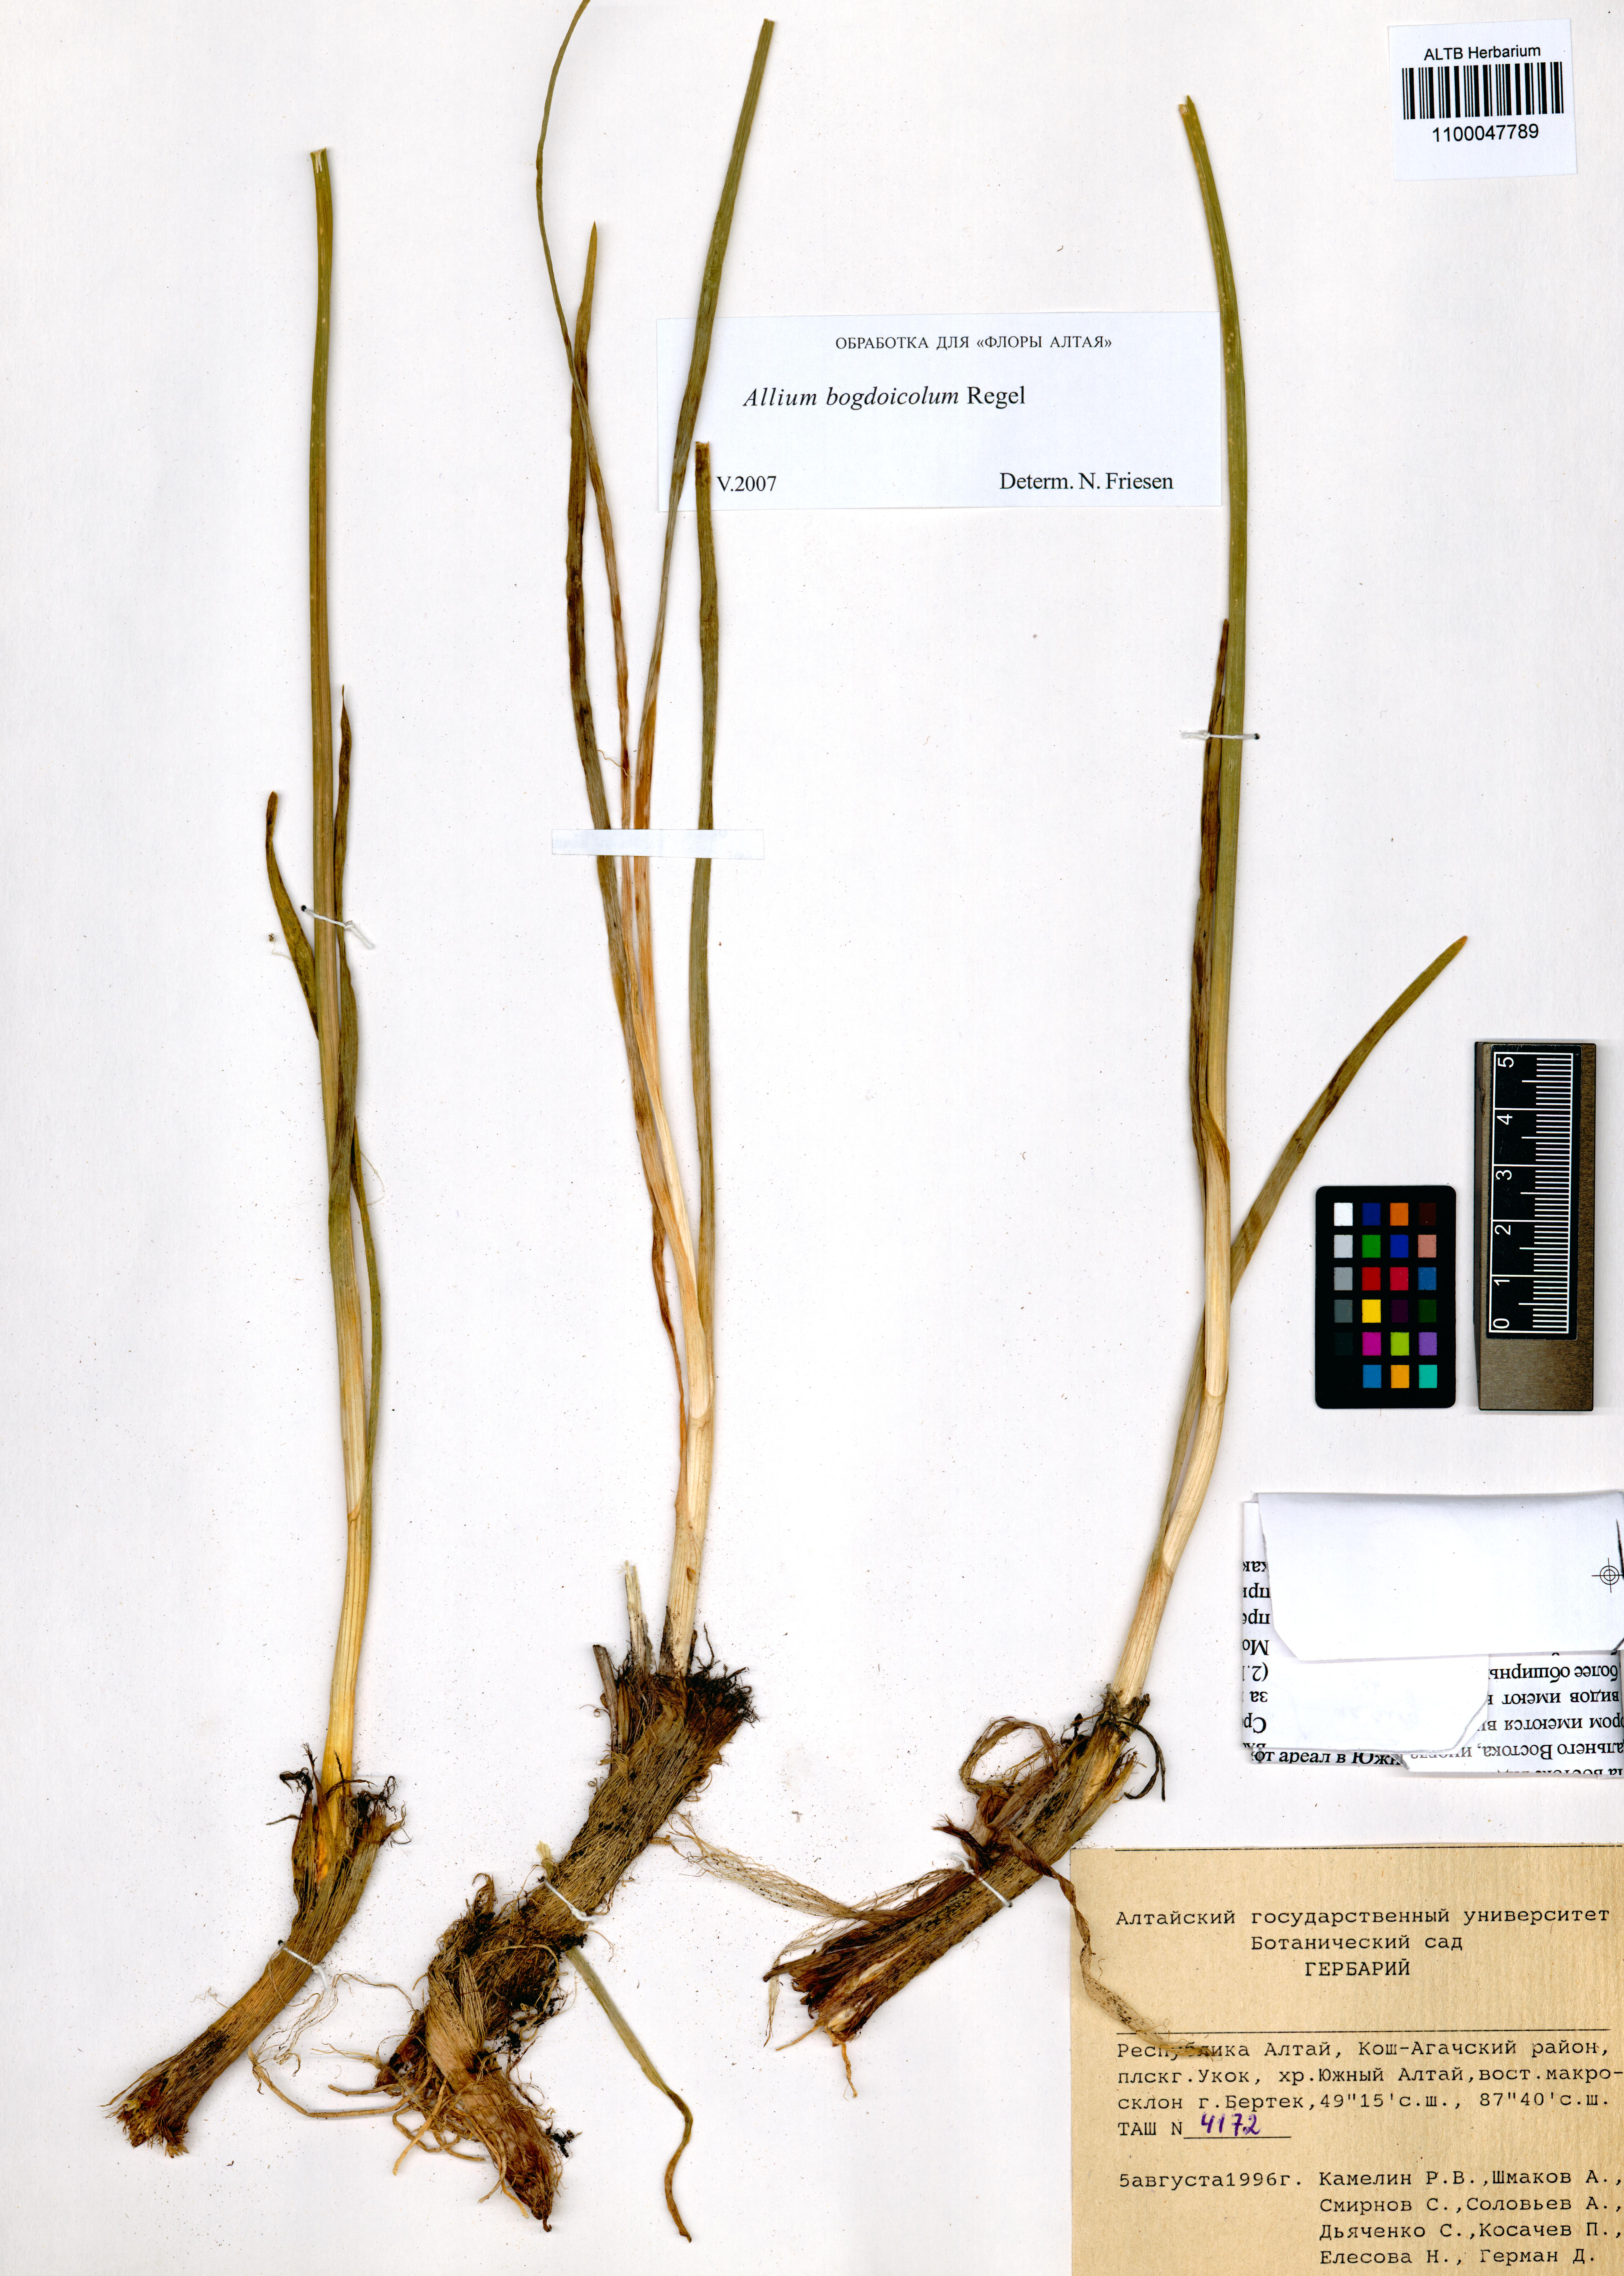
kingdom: Plantae
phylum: Tracheophyta
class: Liliopsida
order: Asparagales
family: Amaryllidaceae
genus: Allium
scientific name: Allium schrenkii
